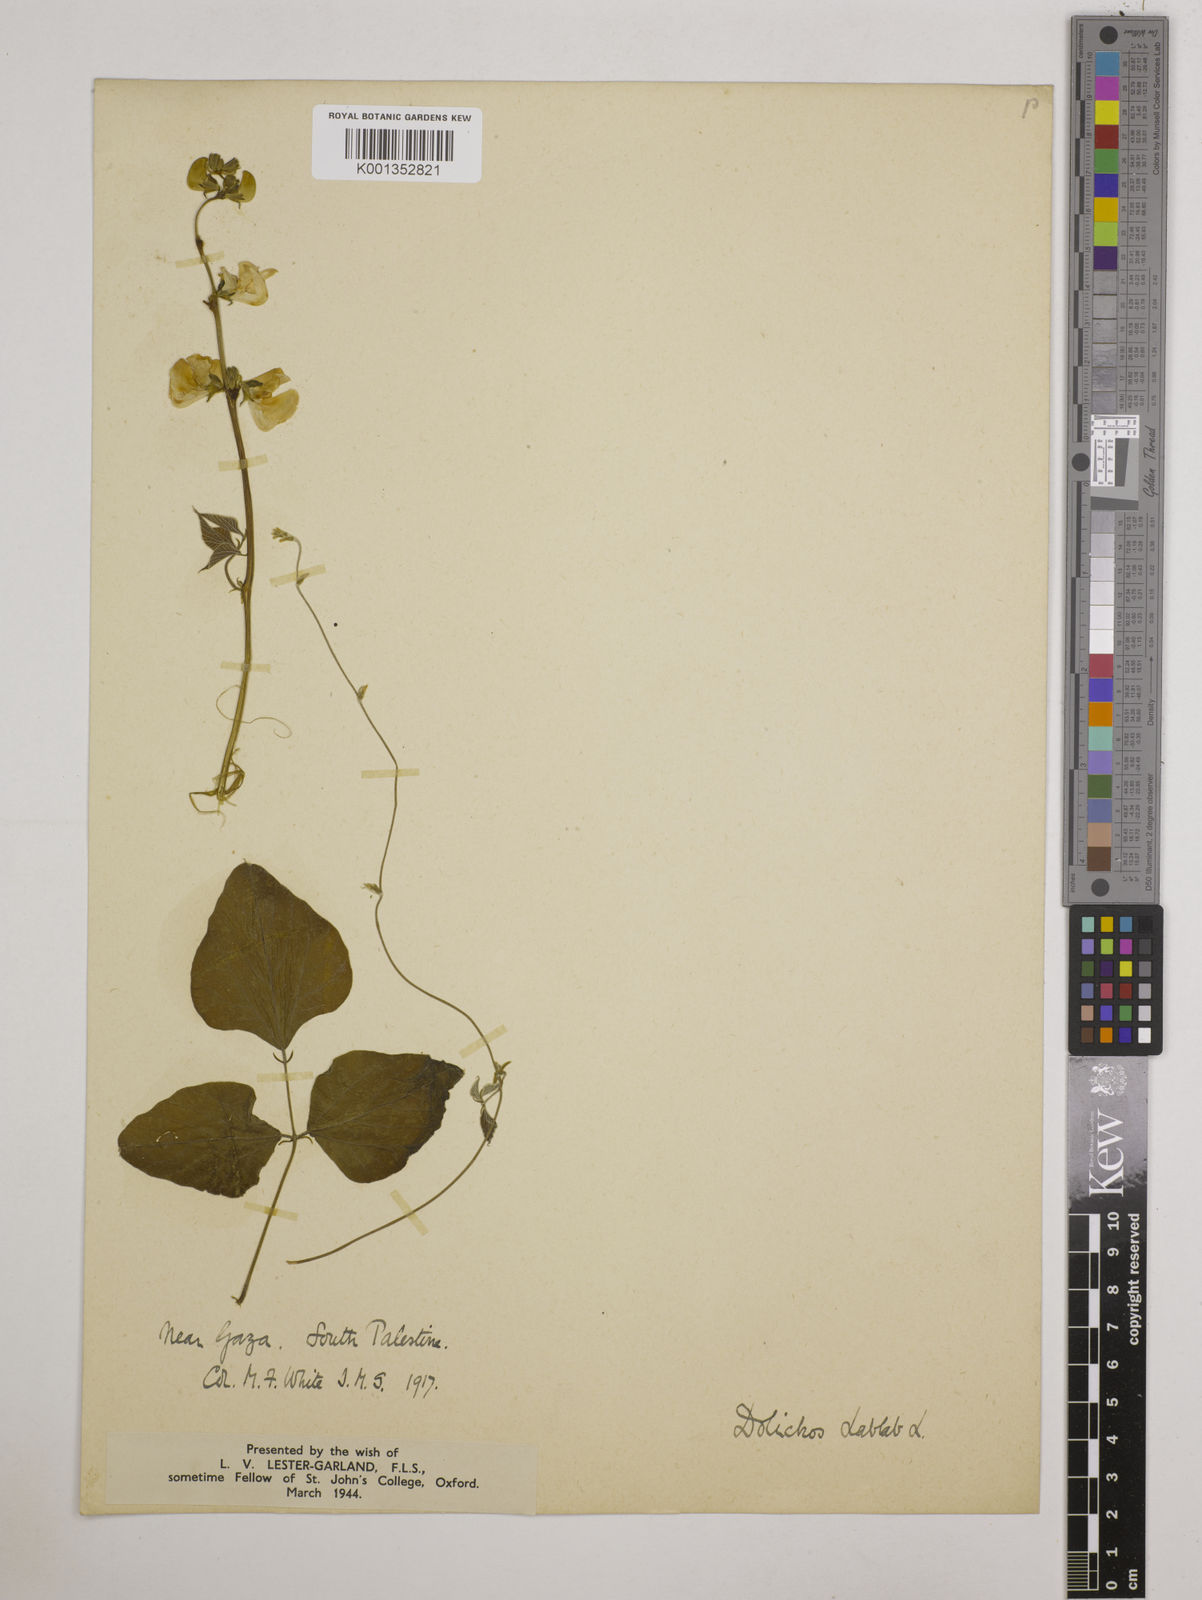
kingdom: Plantae
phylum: Tracheophyta
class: Magnoliopsida
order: Fabales
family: Fabaceae
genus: Lablab
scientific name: Lablab purpureus
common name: Lablab-bean
